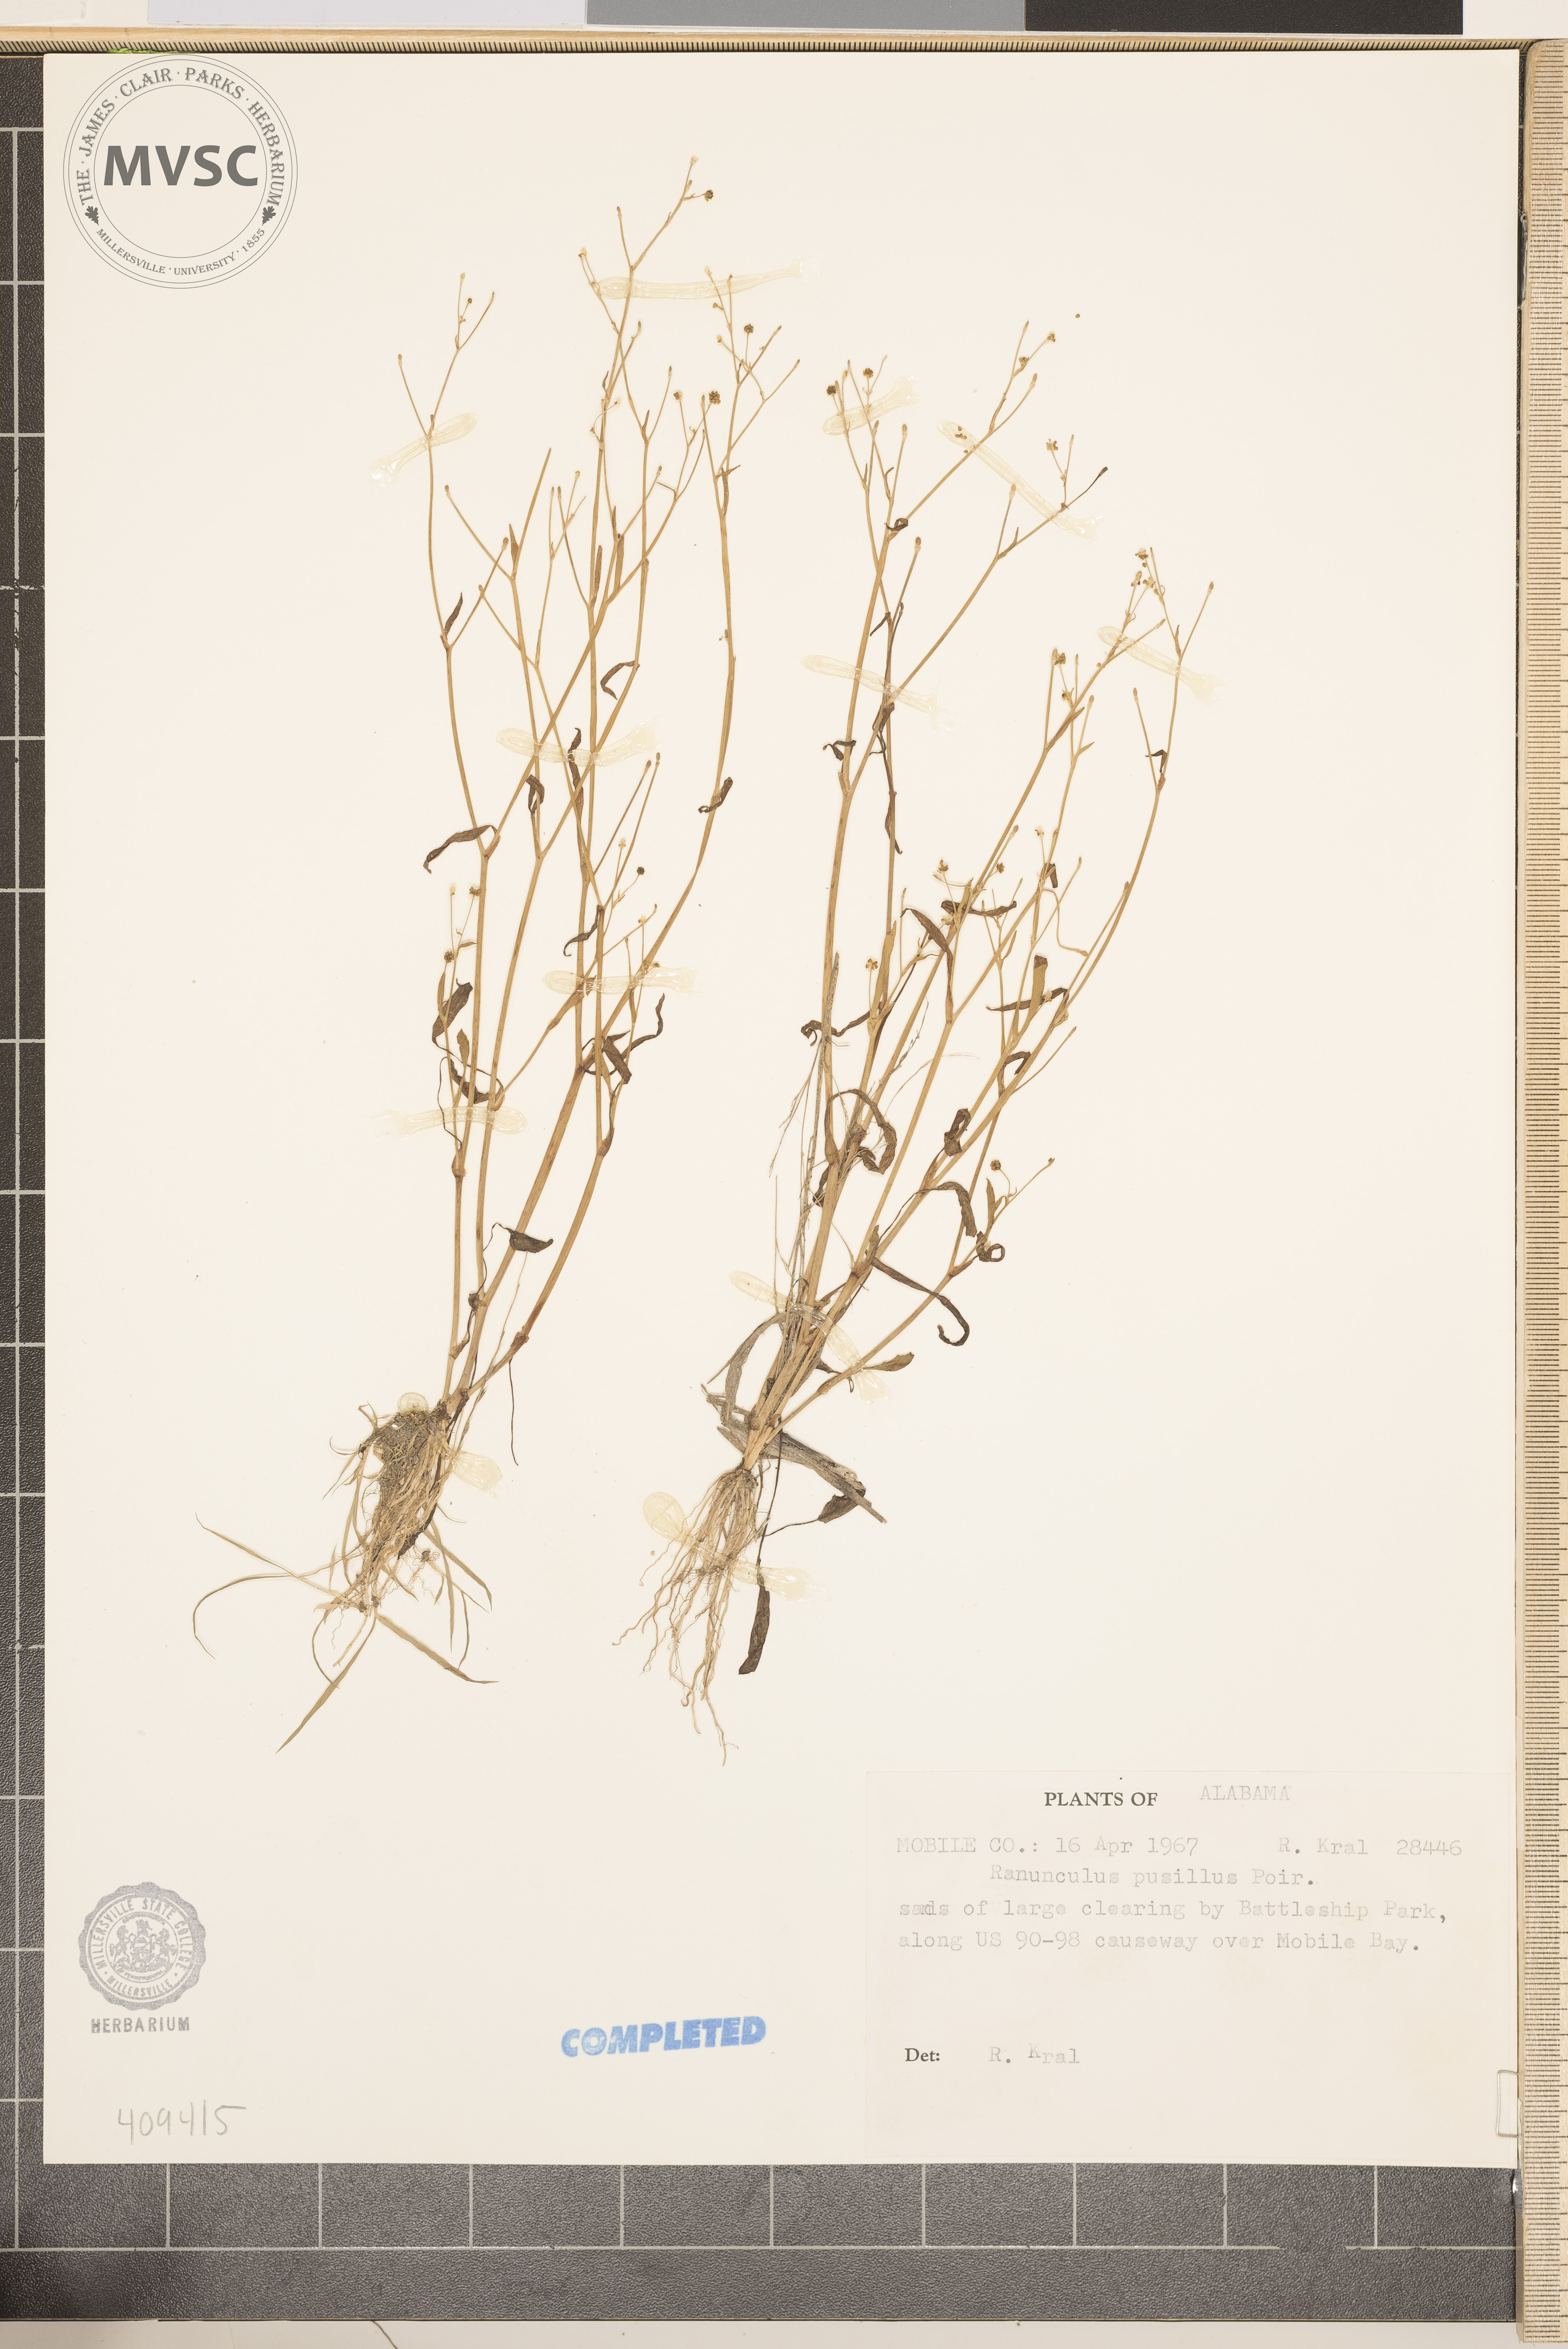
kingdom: Plantae
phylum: Tracheophyta
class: Magnoliopsida
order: Ranunculales
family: Ranunculaceae
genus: Ranunculus
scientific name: Ranunculus pusillus
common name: Buttercup
